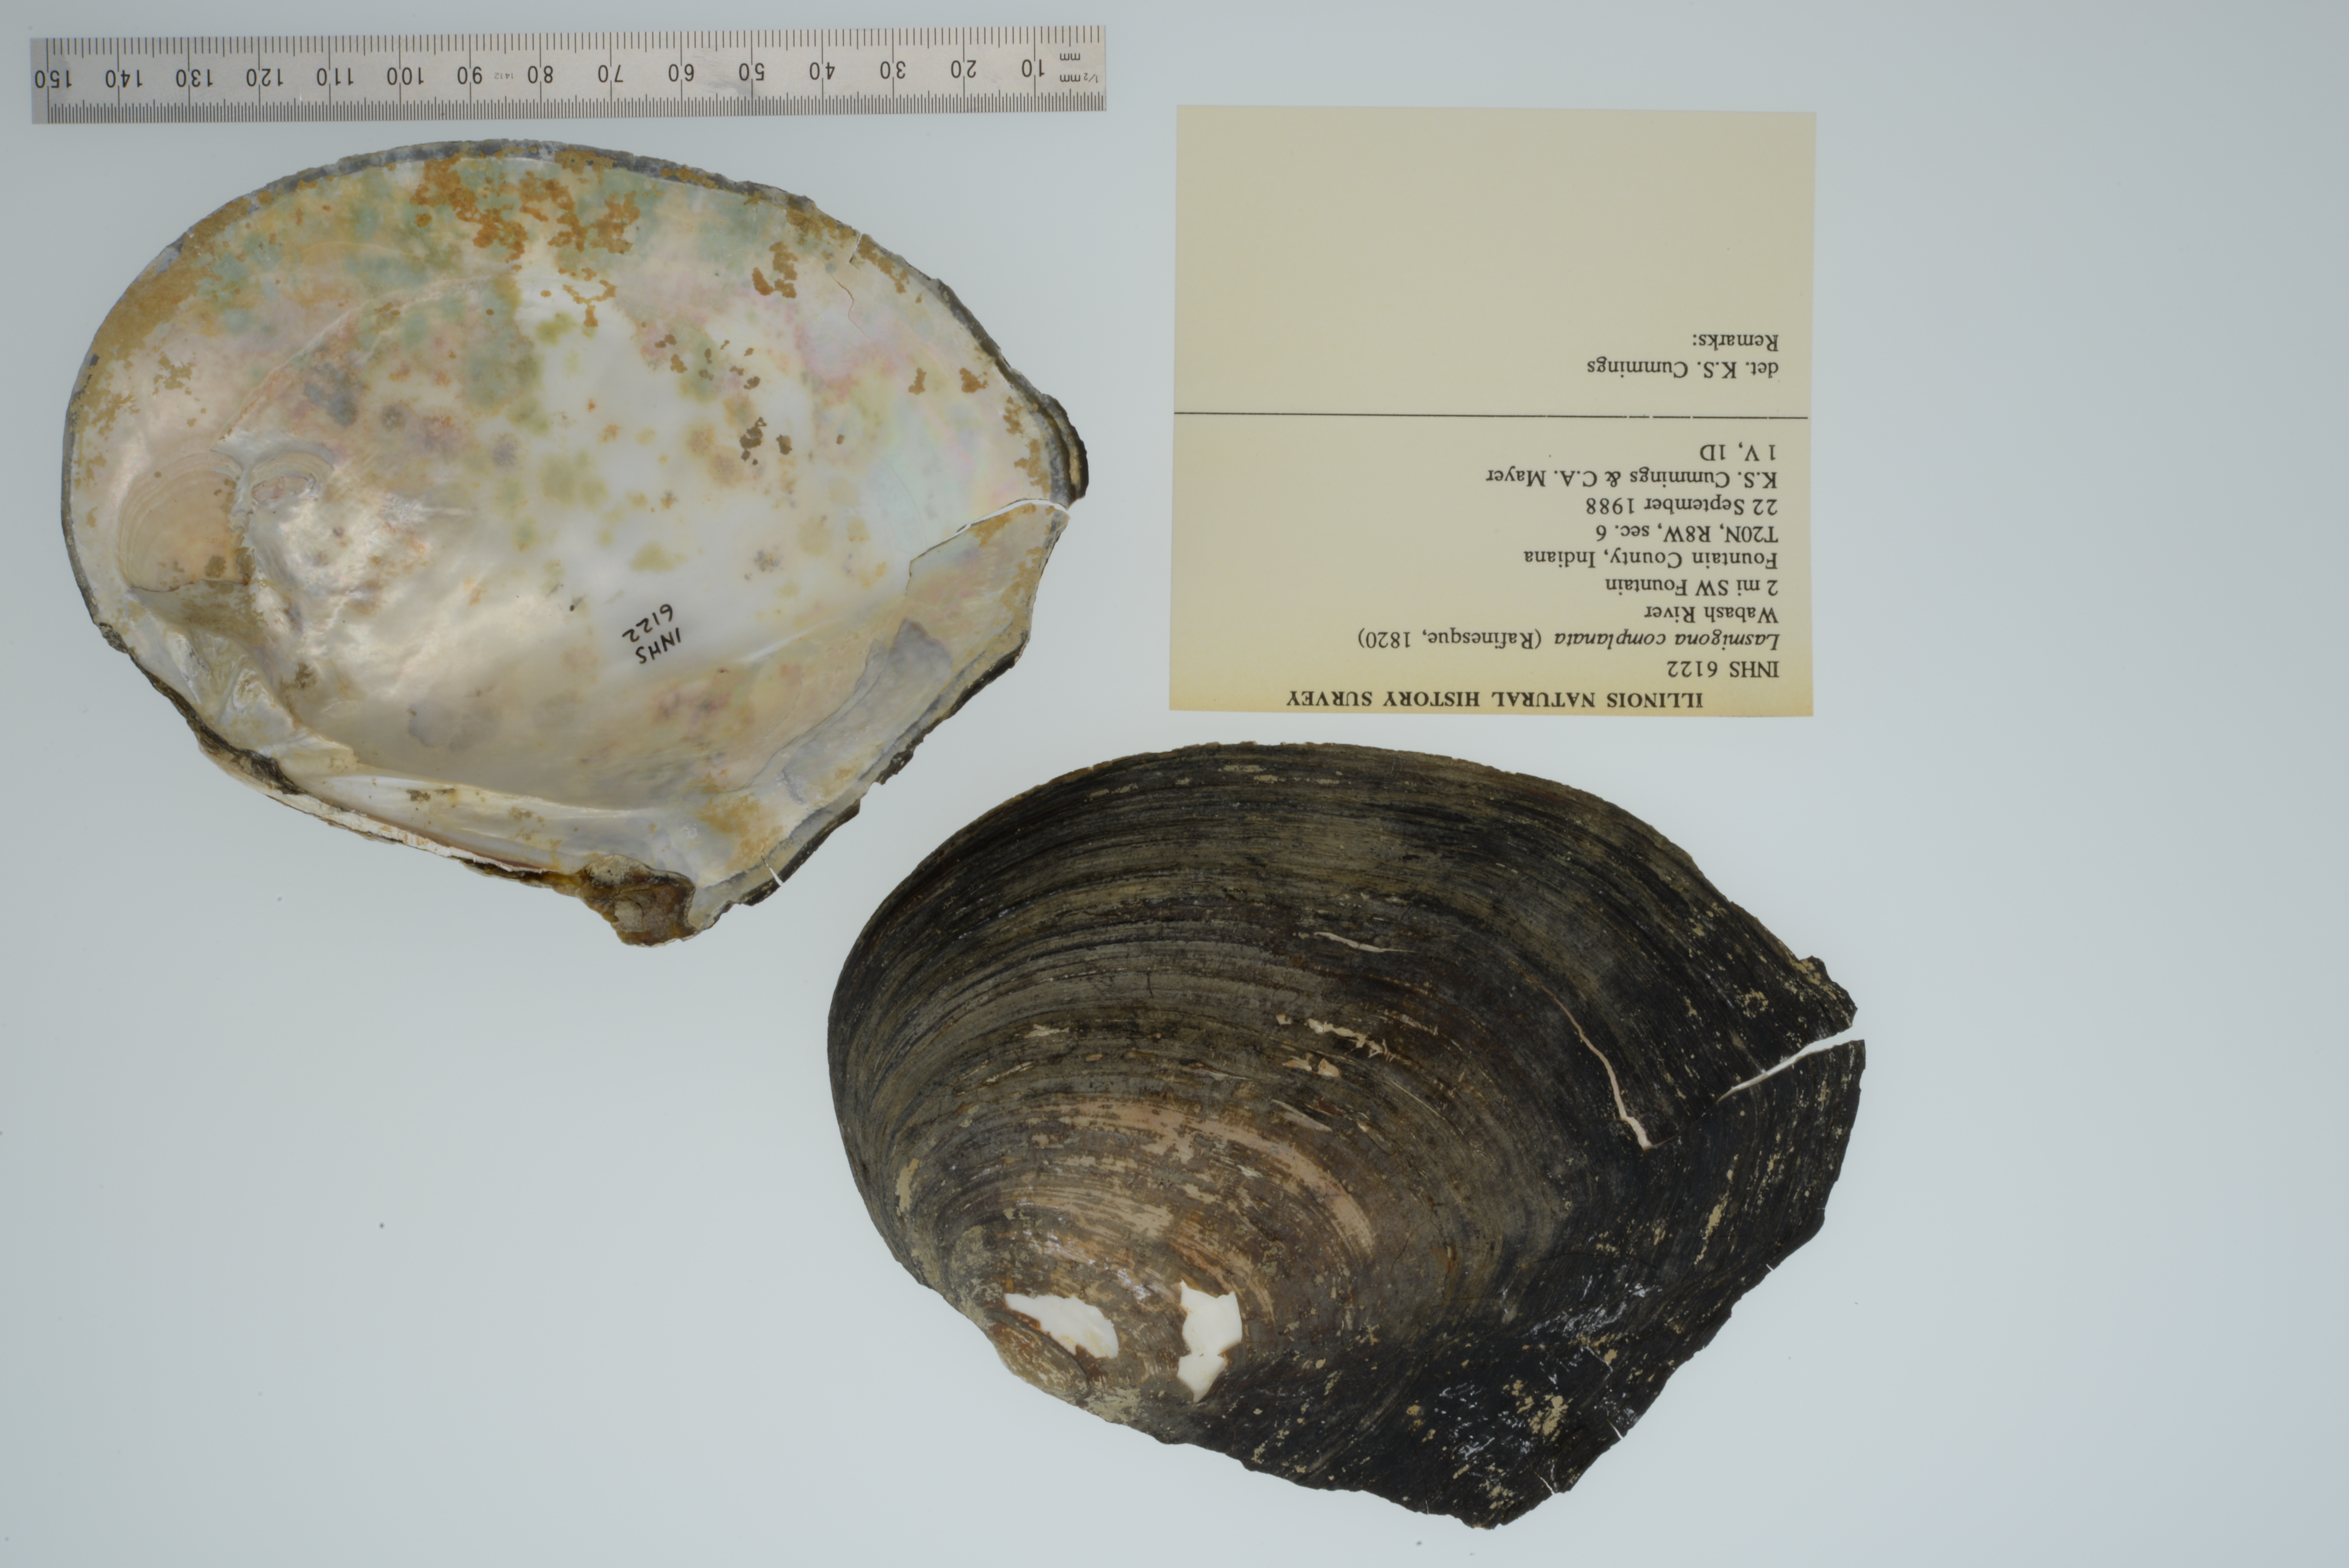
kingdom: Animalia
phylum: Mollusca
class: Bivalvia
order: Unionida
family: Unionidae
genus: Lasmigona
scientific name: Lasmigona complanata
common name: White heelsplitter
